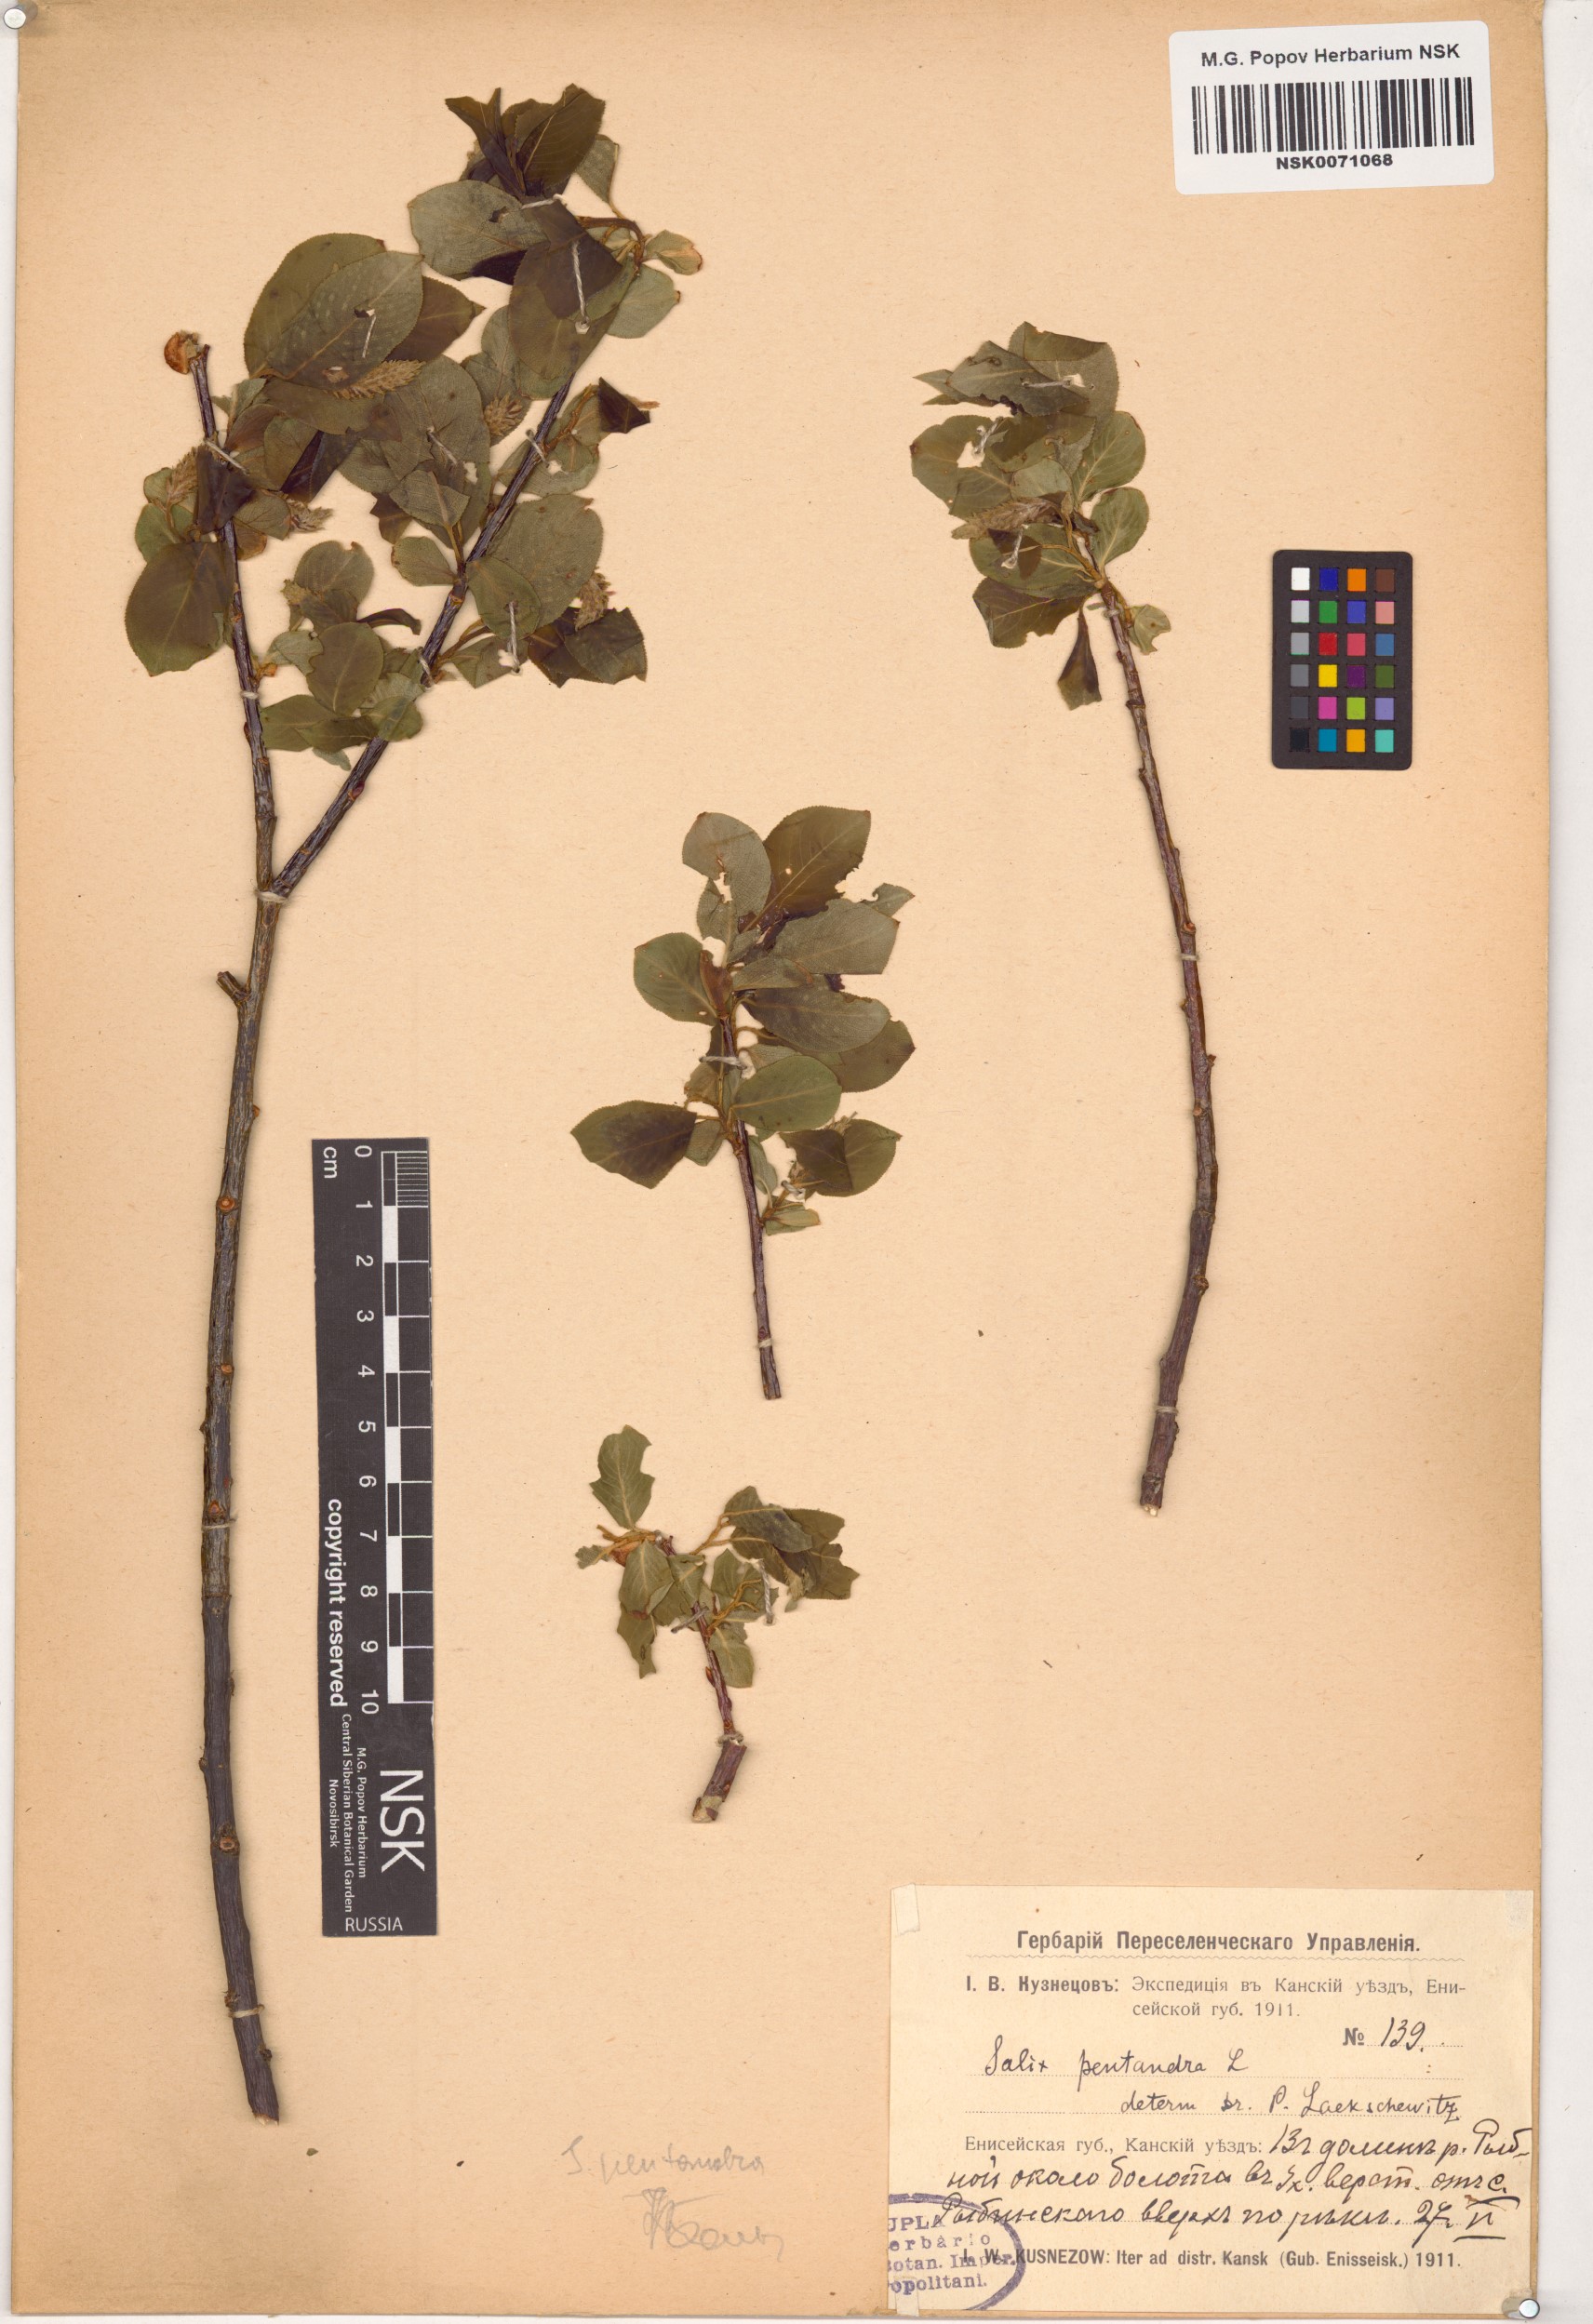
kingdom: Plantae
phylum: Tracheophyta
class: Magnoliopsida
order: Malpighiales
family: Salicaceae
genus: Salix
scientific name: Salix pentandra
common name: Bay willow
